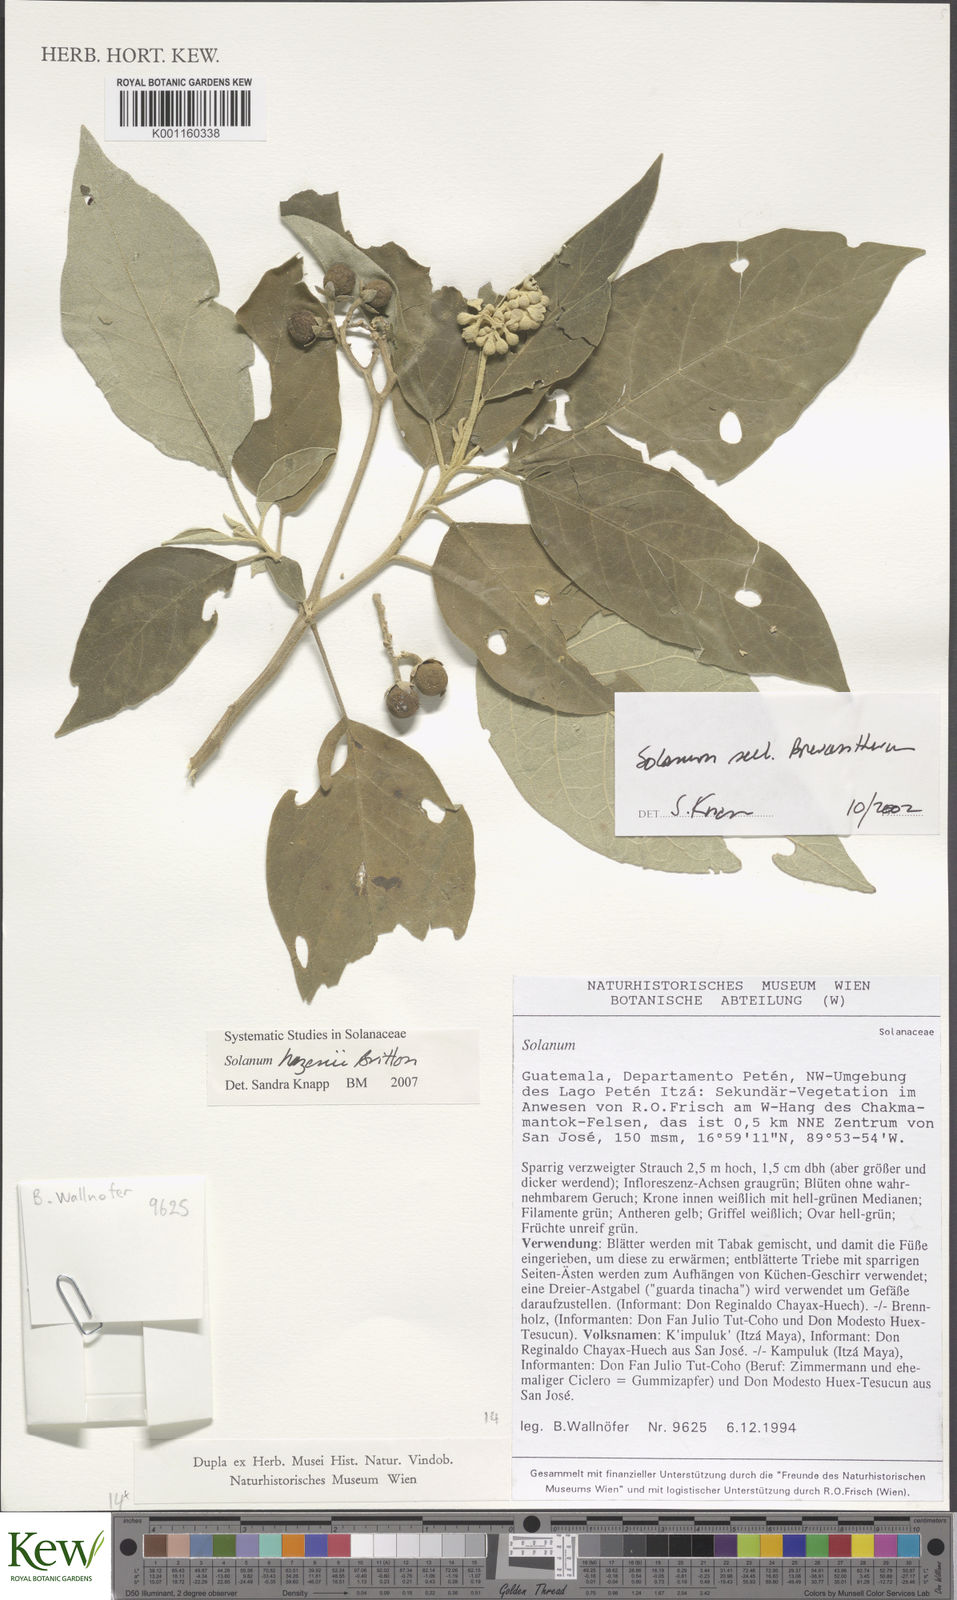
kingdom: Plantae
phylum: Tracheophyta
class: Magnoliopsida
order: Solanales
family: Solanaceae
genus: Solanum
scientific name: Solanum hazenii
